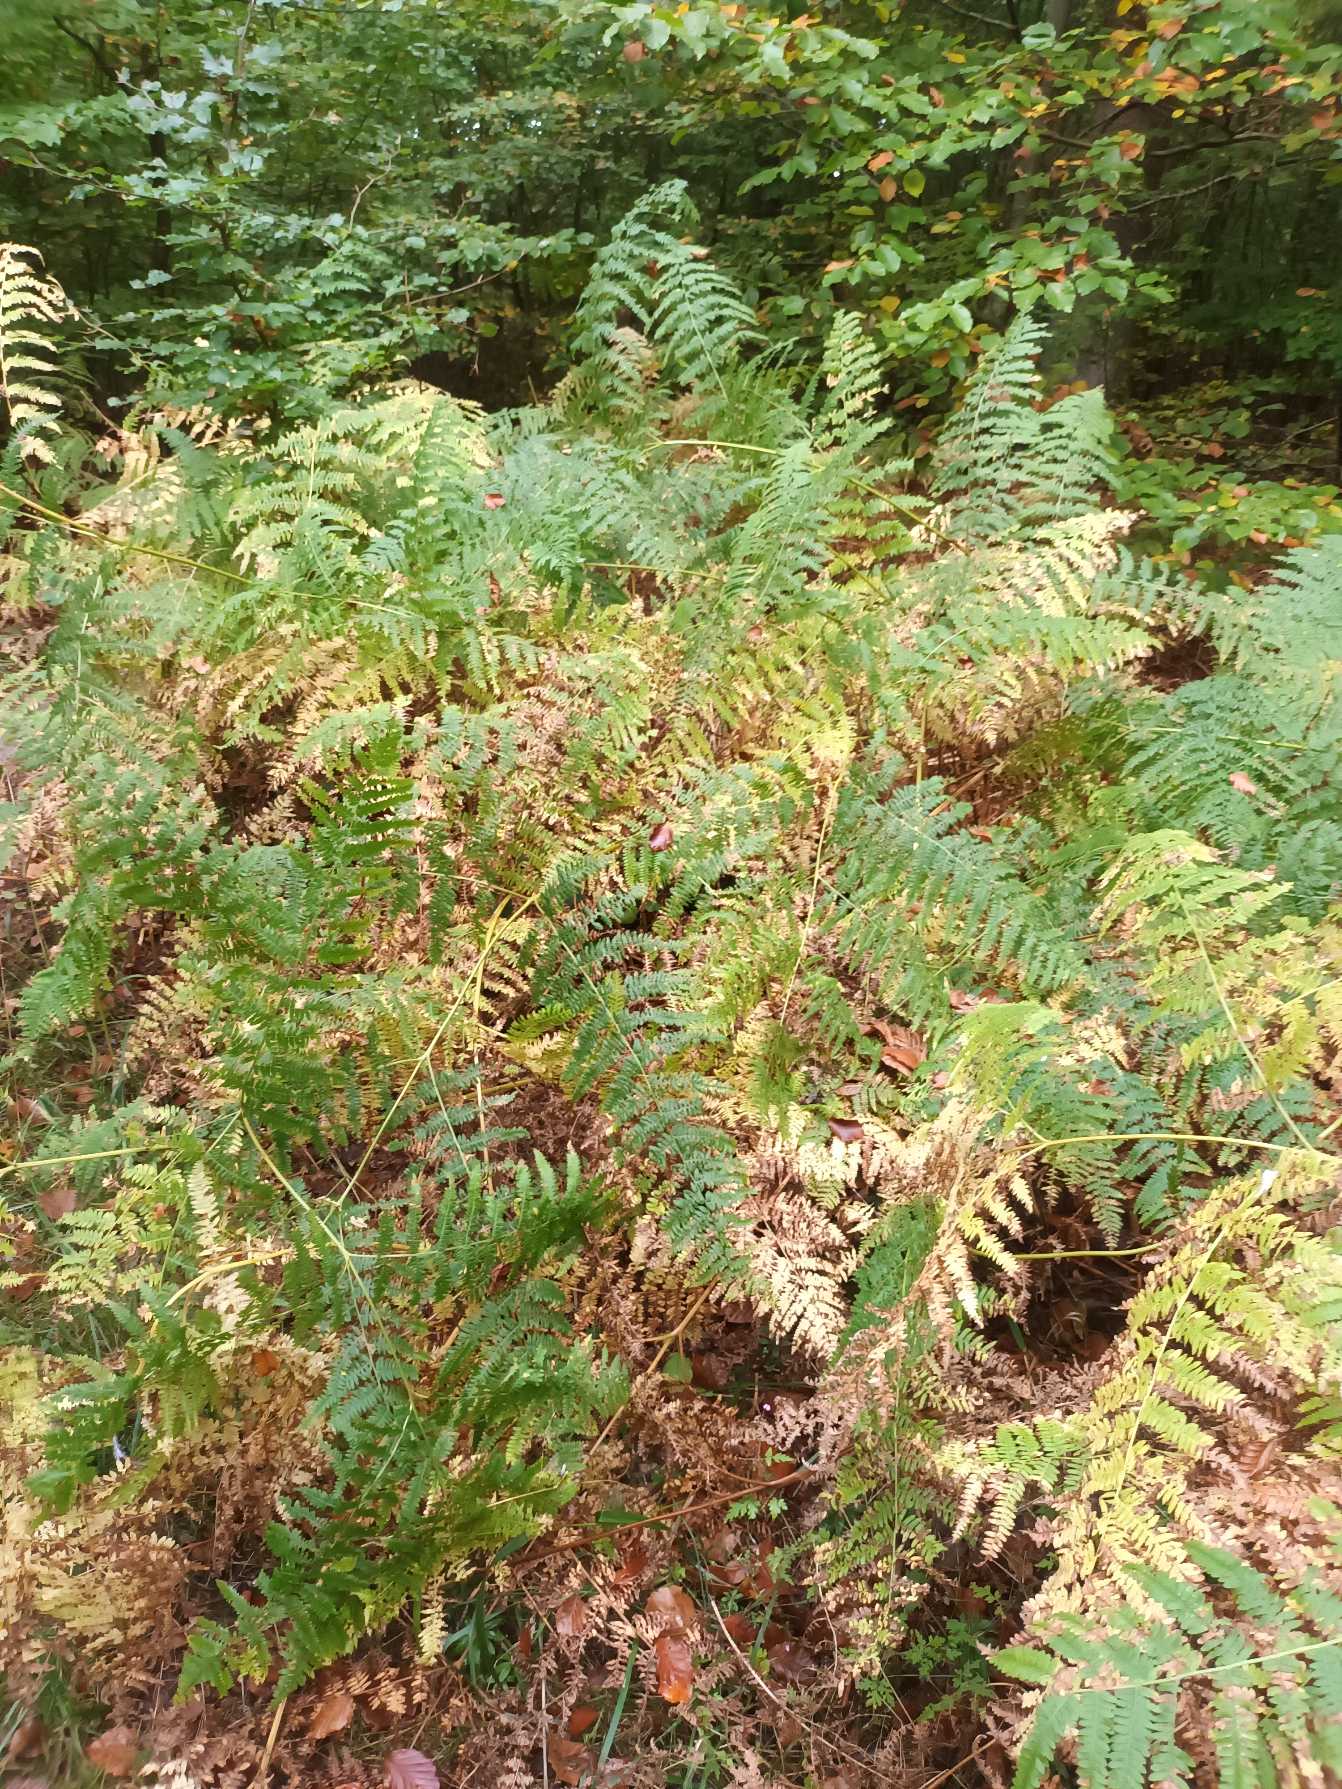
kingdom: Plantae
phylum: Tracheophyta
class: Polypodiopsida
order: Polypodiales
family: Dennstaedtiaceae
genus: Pteridium
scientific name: Pteridium aquilinum
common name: Ørnebregne
